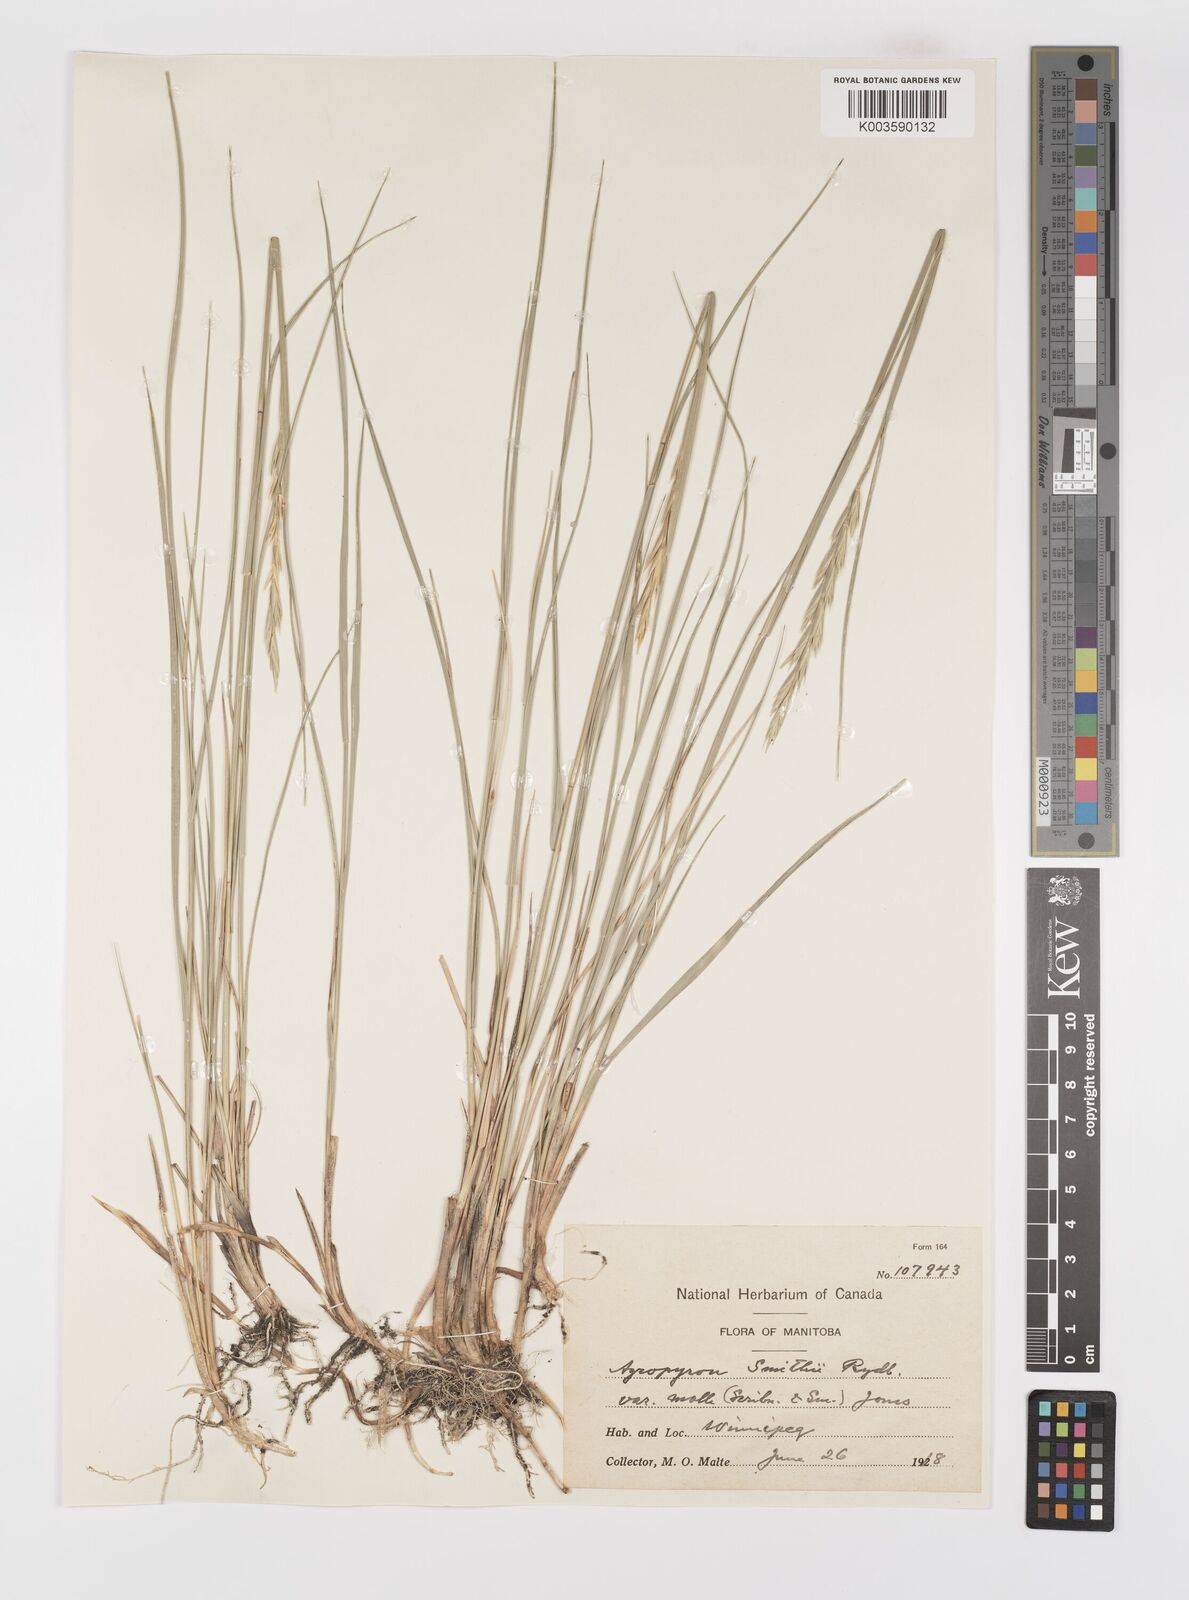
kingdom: Plantae
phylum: Tracheophyta
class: Liliopsida
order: Poales
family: Poaceae
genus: Elymus
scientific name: Elymus smithii
